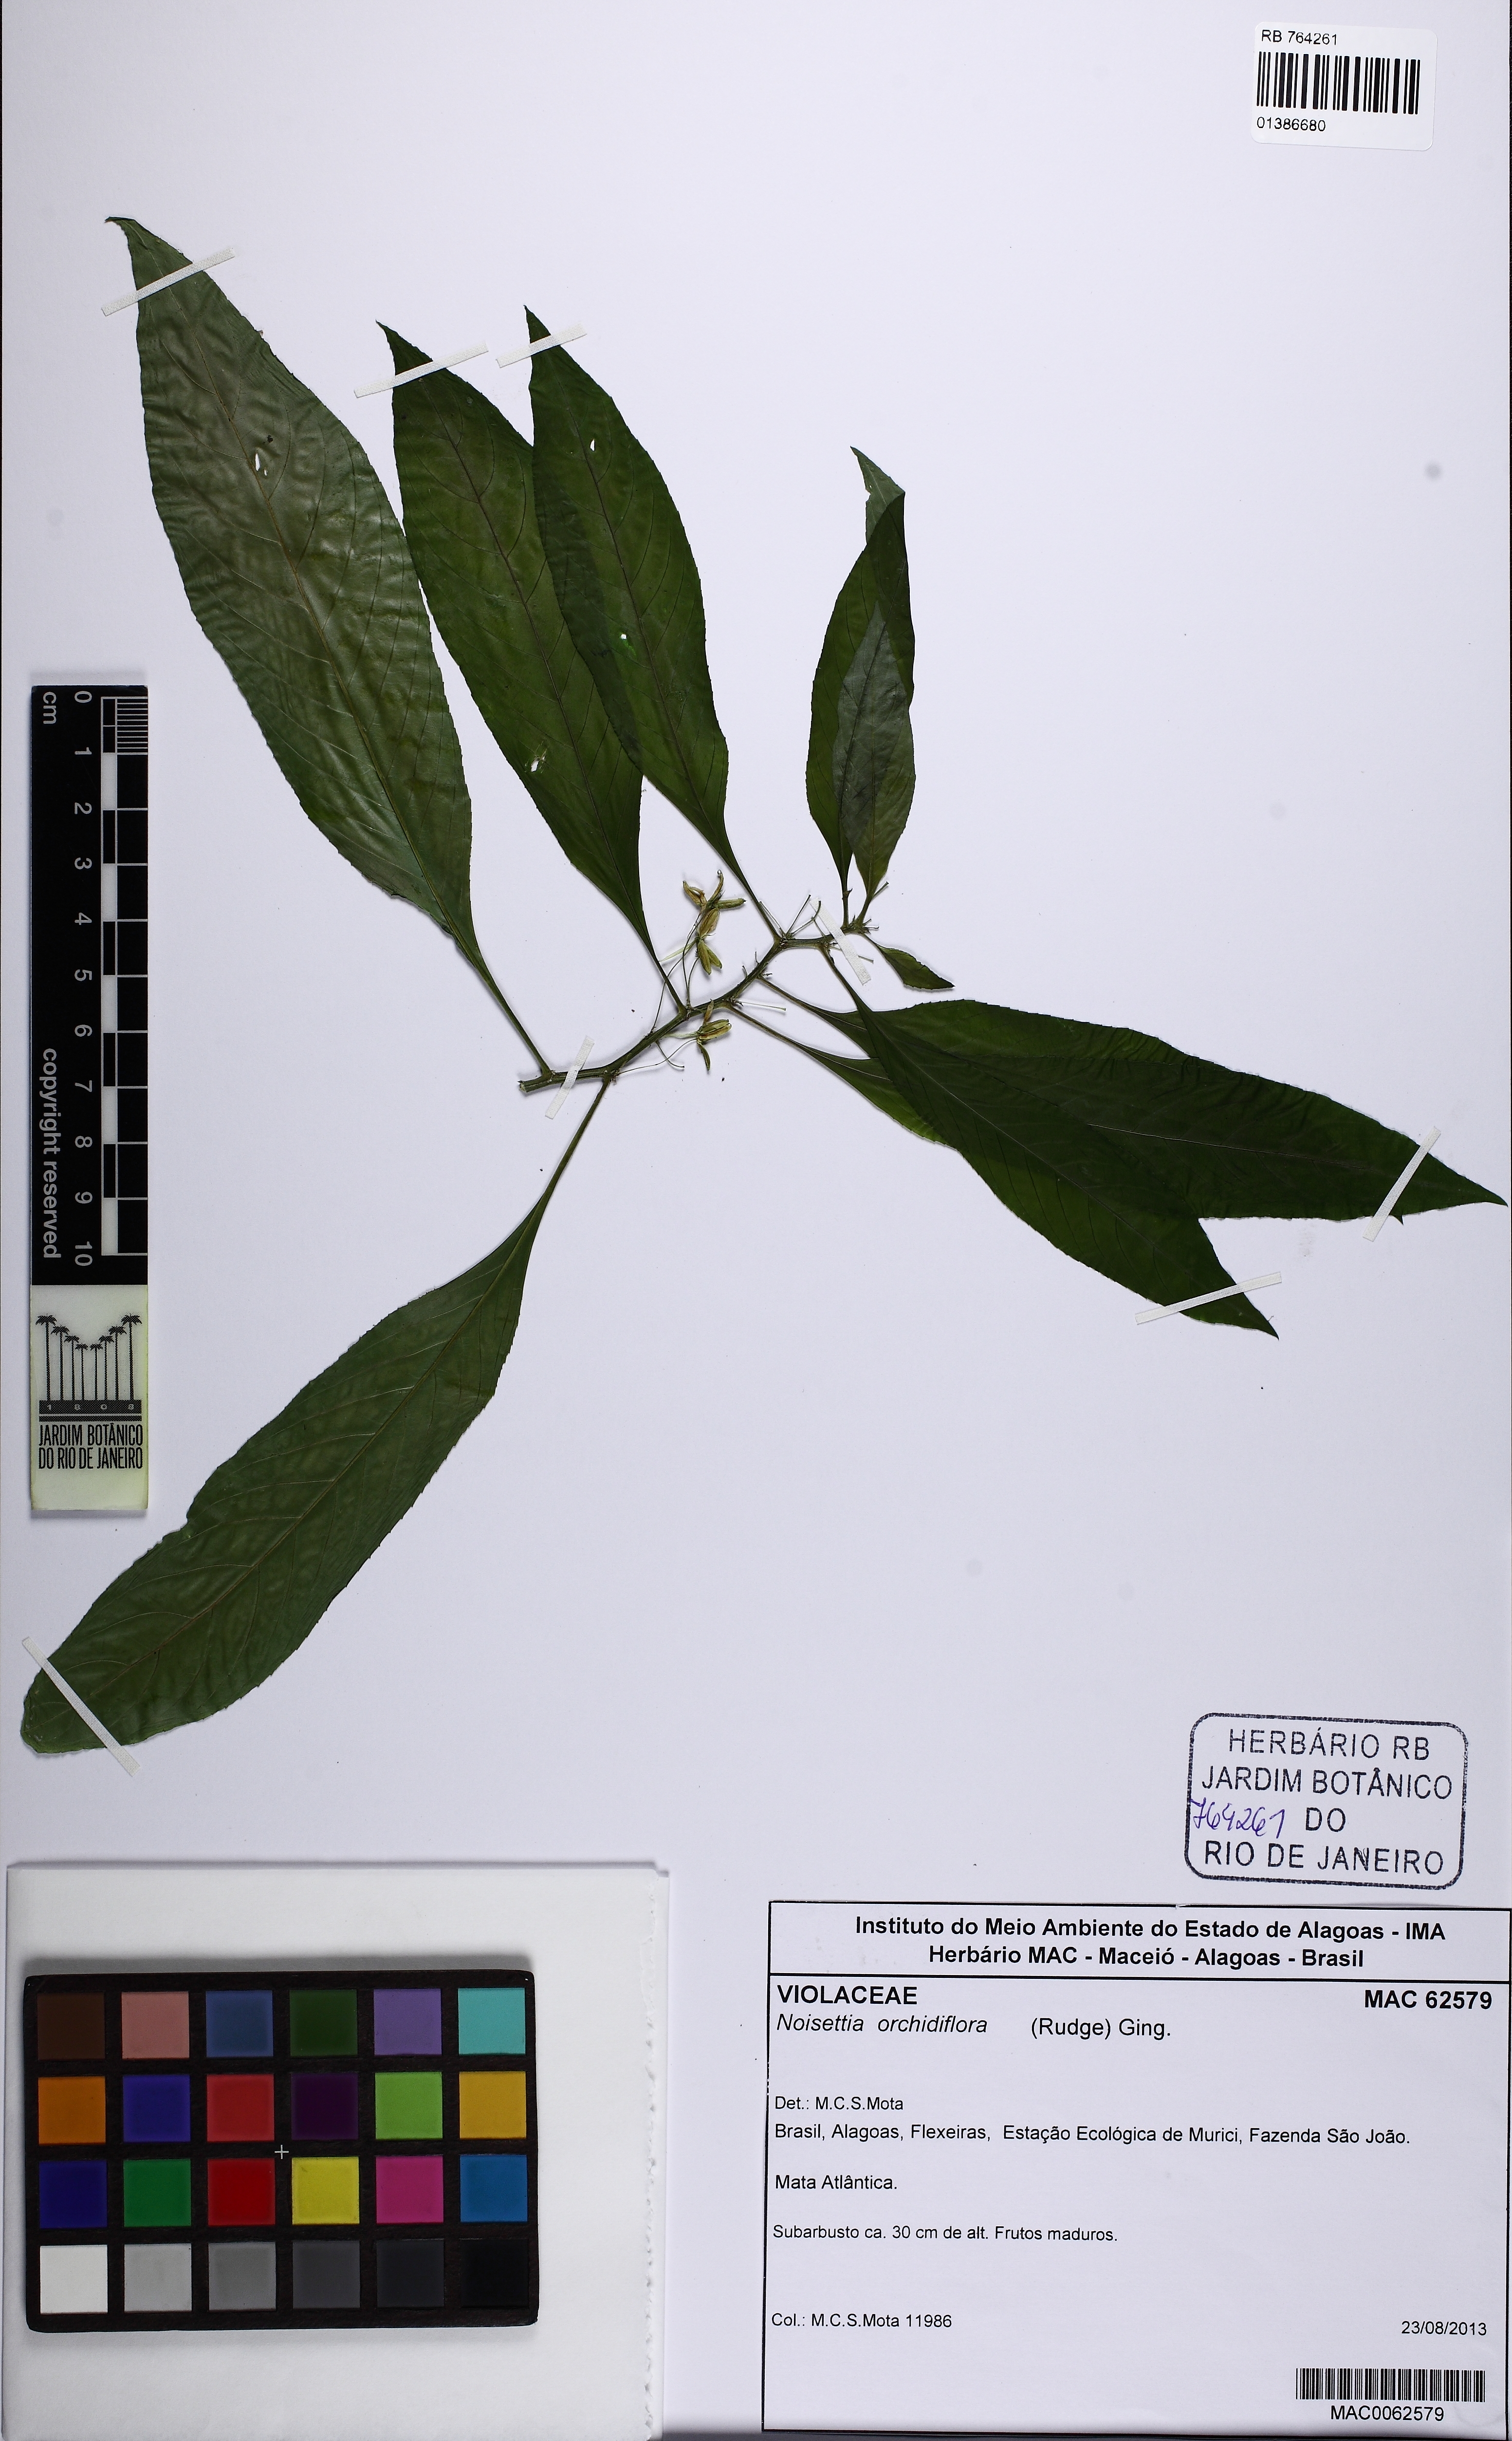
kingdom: Plantae
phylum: Tracheophyta
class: Magnoliopsida
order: Malpighiales
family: Violaceae
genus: Noisettia
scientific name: Noisettia orchidiflora
